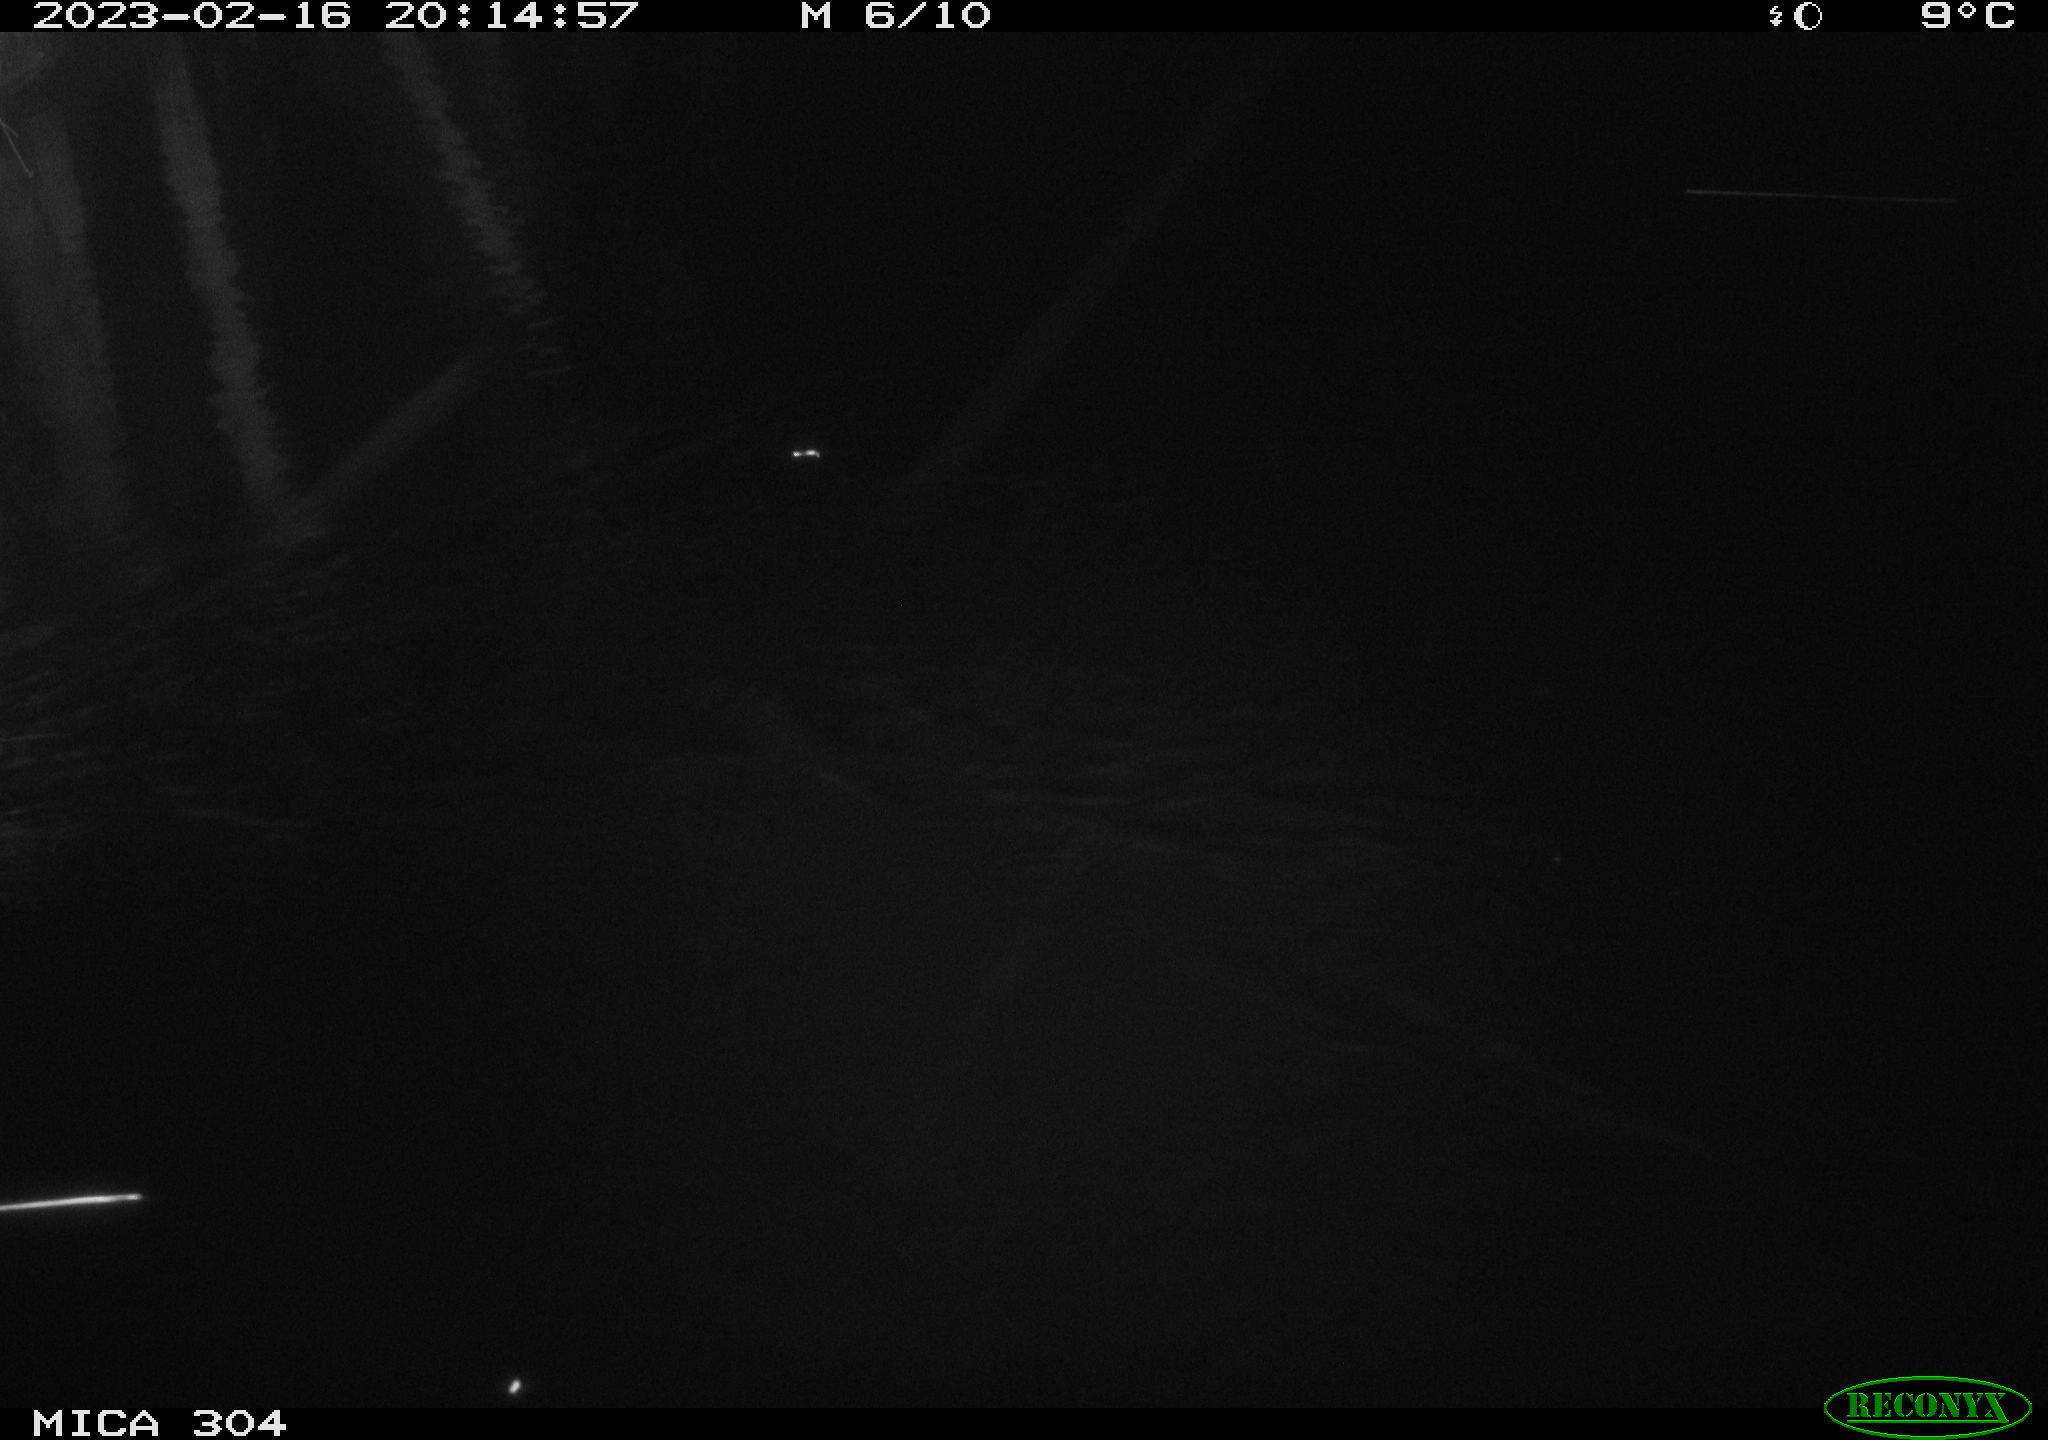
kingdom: Animalia
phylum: Chordata
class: Mammalia
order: Rodentia
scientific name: Rodentia
